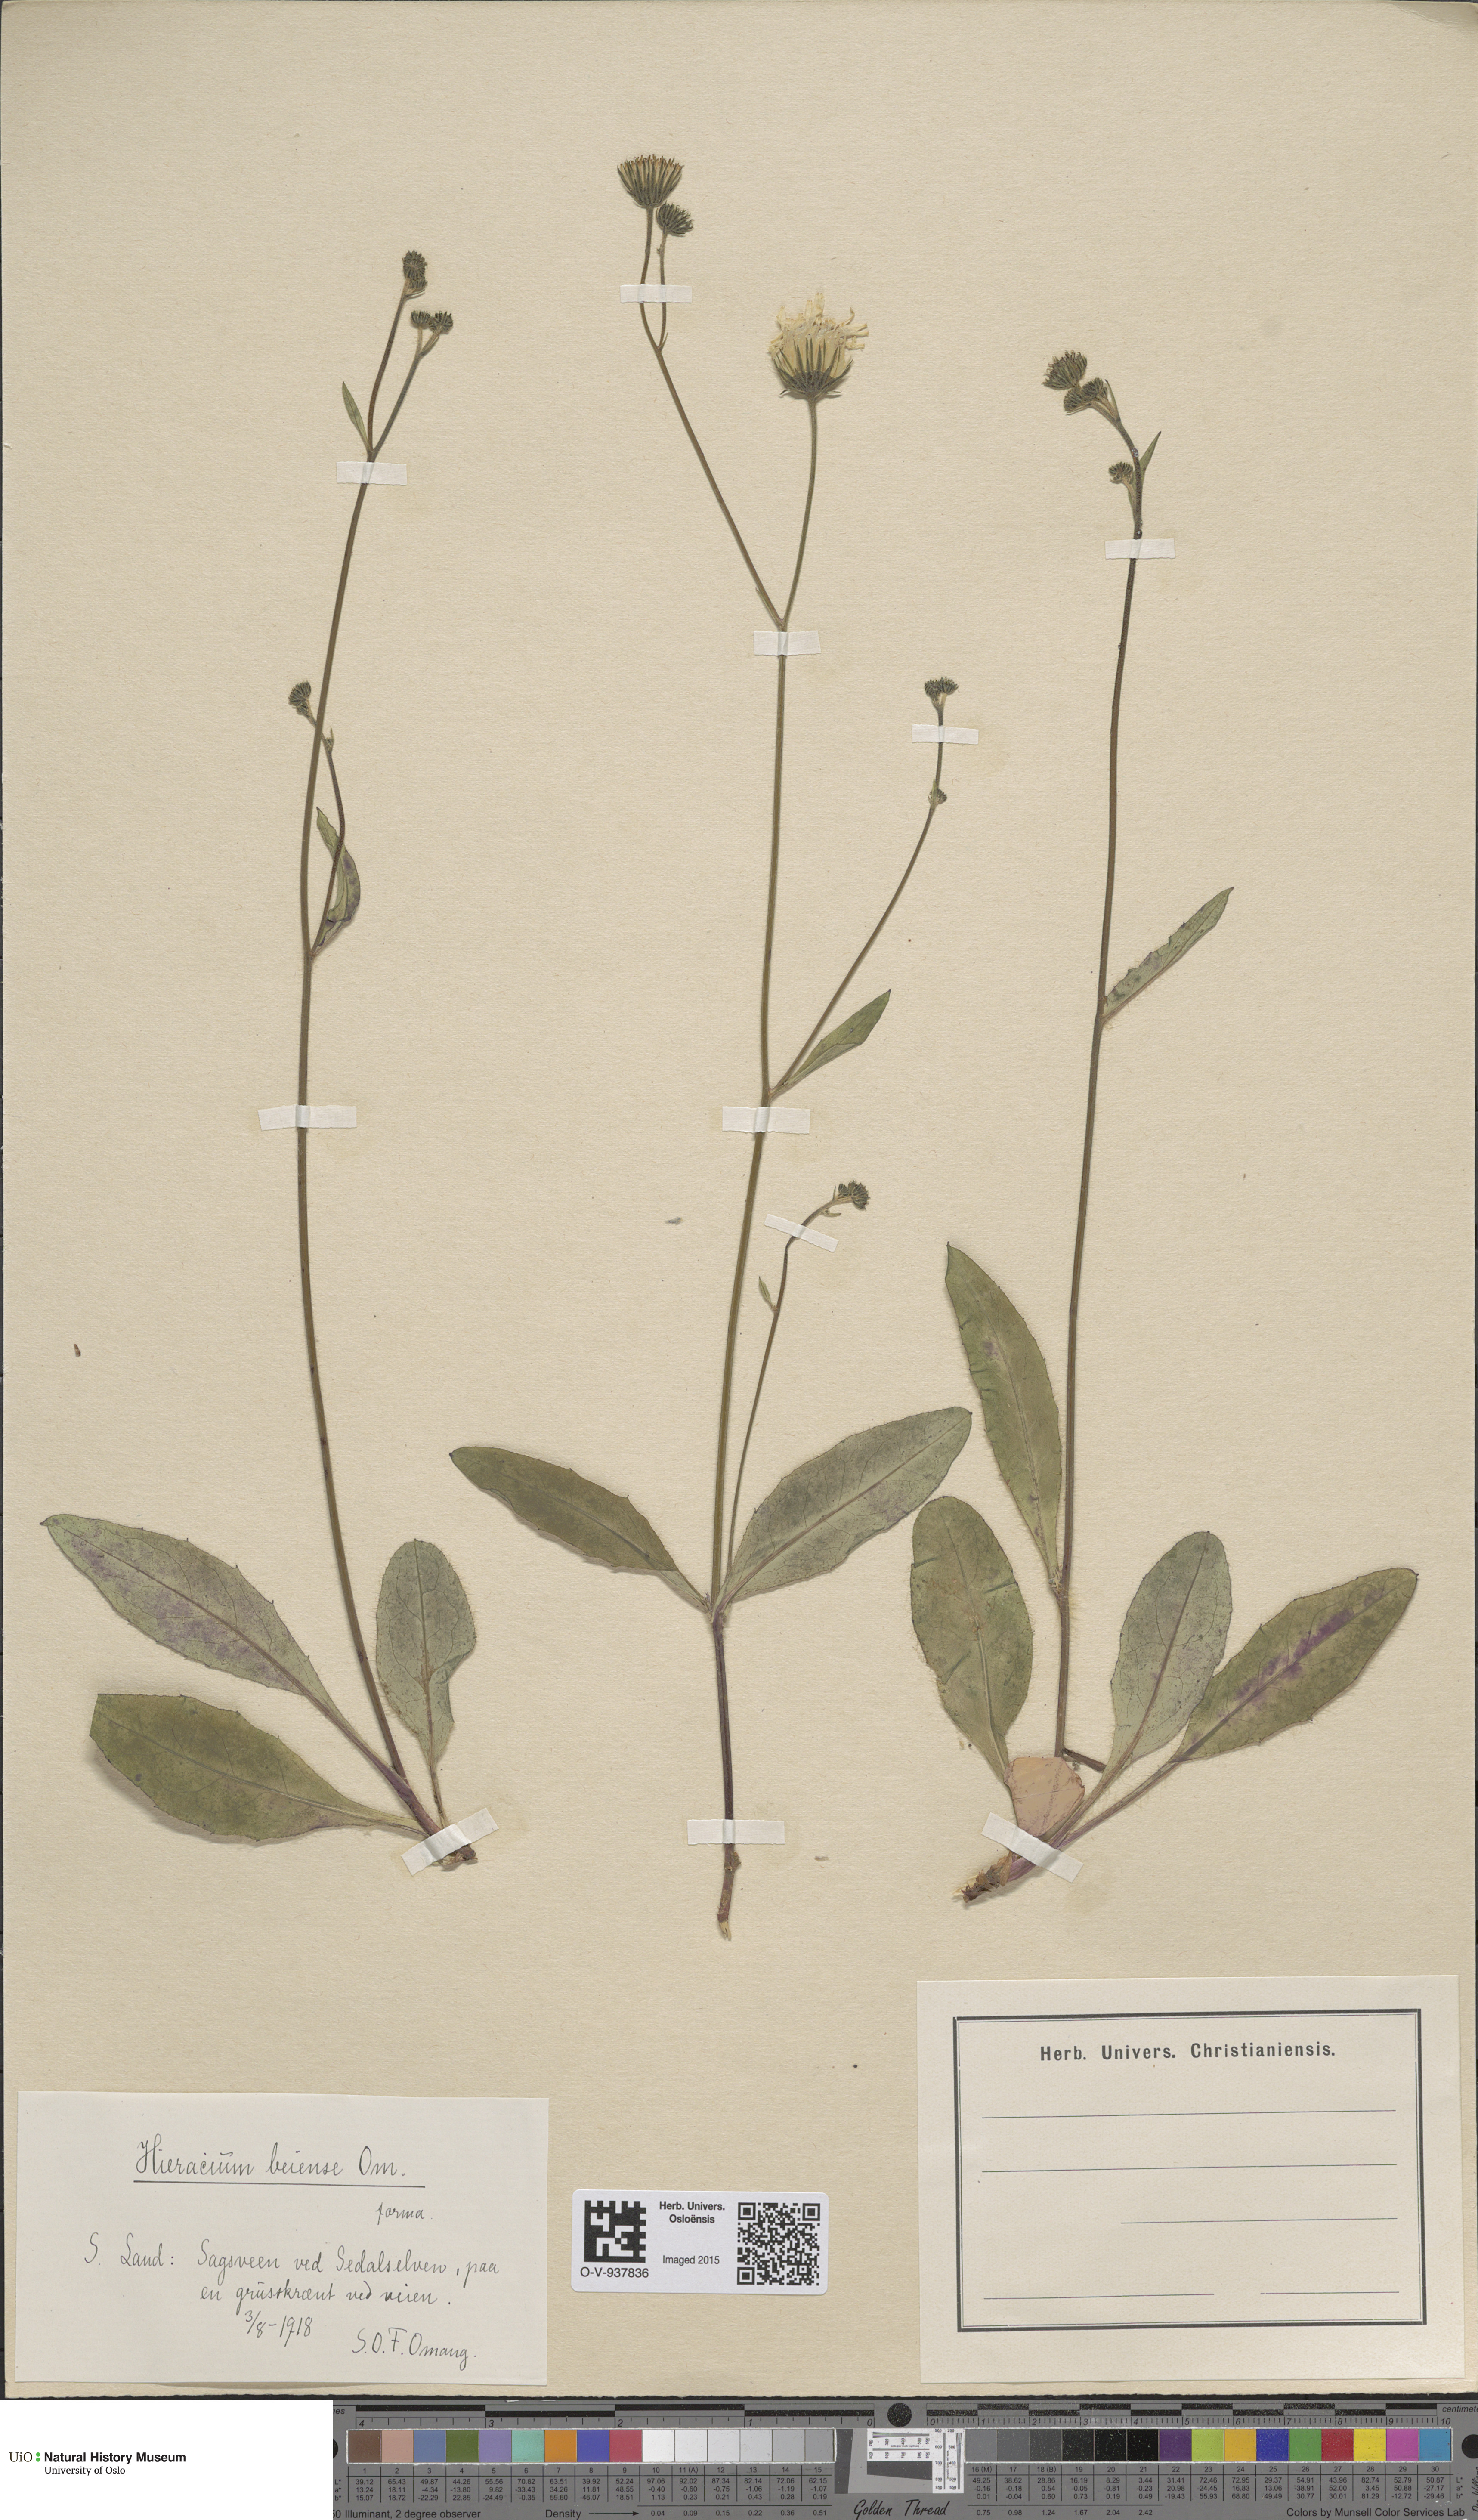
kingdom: Plantae
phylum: Tracheophyta
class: Magnoliopsida
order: Asterales
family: Asteraceae
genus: Hieracium
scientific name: Hieracium
